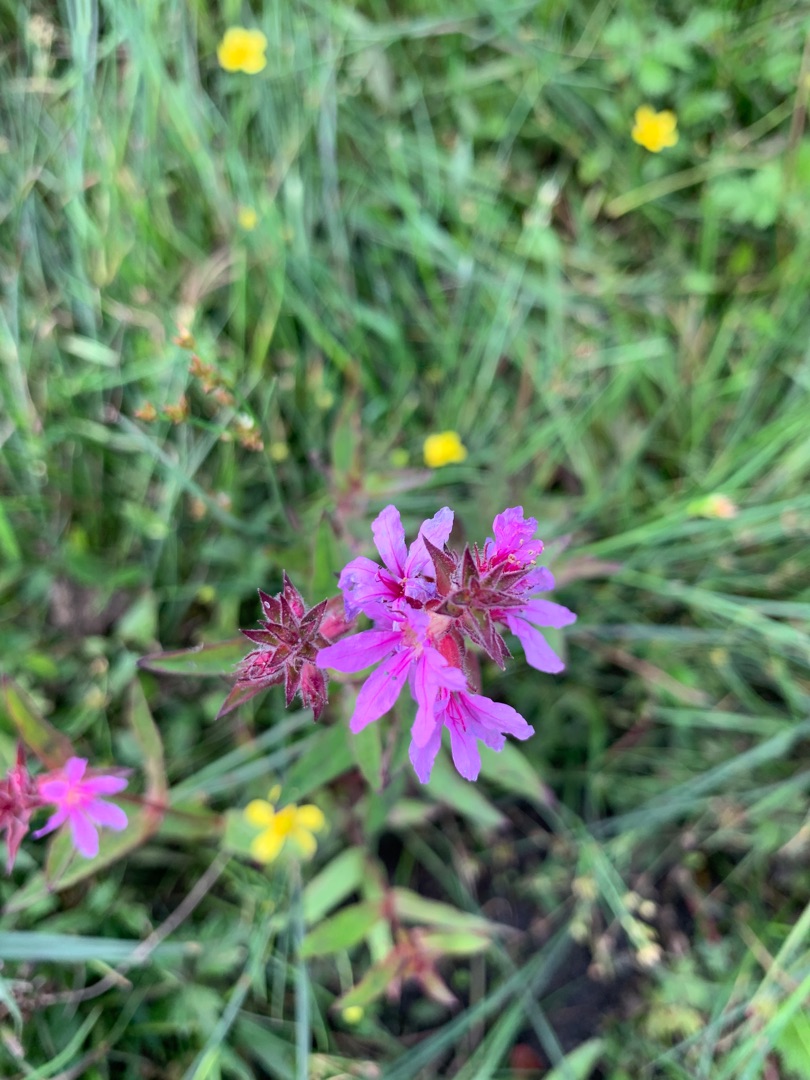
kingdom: Plantae
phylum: Tracheophyta
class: Magnoliopsida
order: Myrtales
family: Lythraceae
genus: Lythrum
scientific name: Lythrum salicaria
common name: Kattehale
